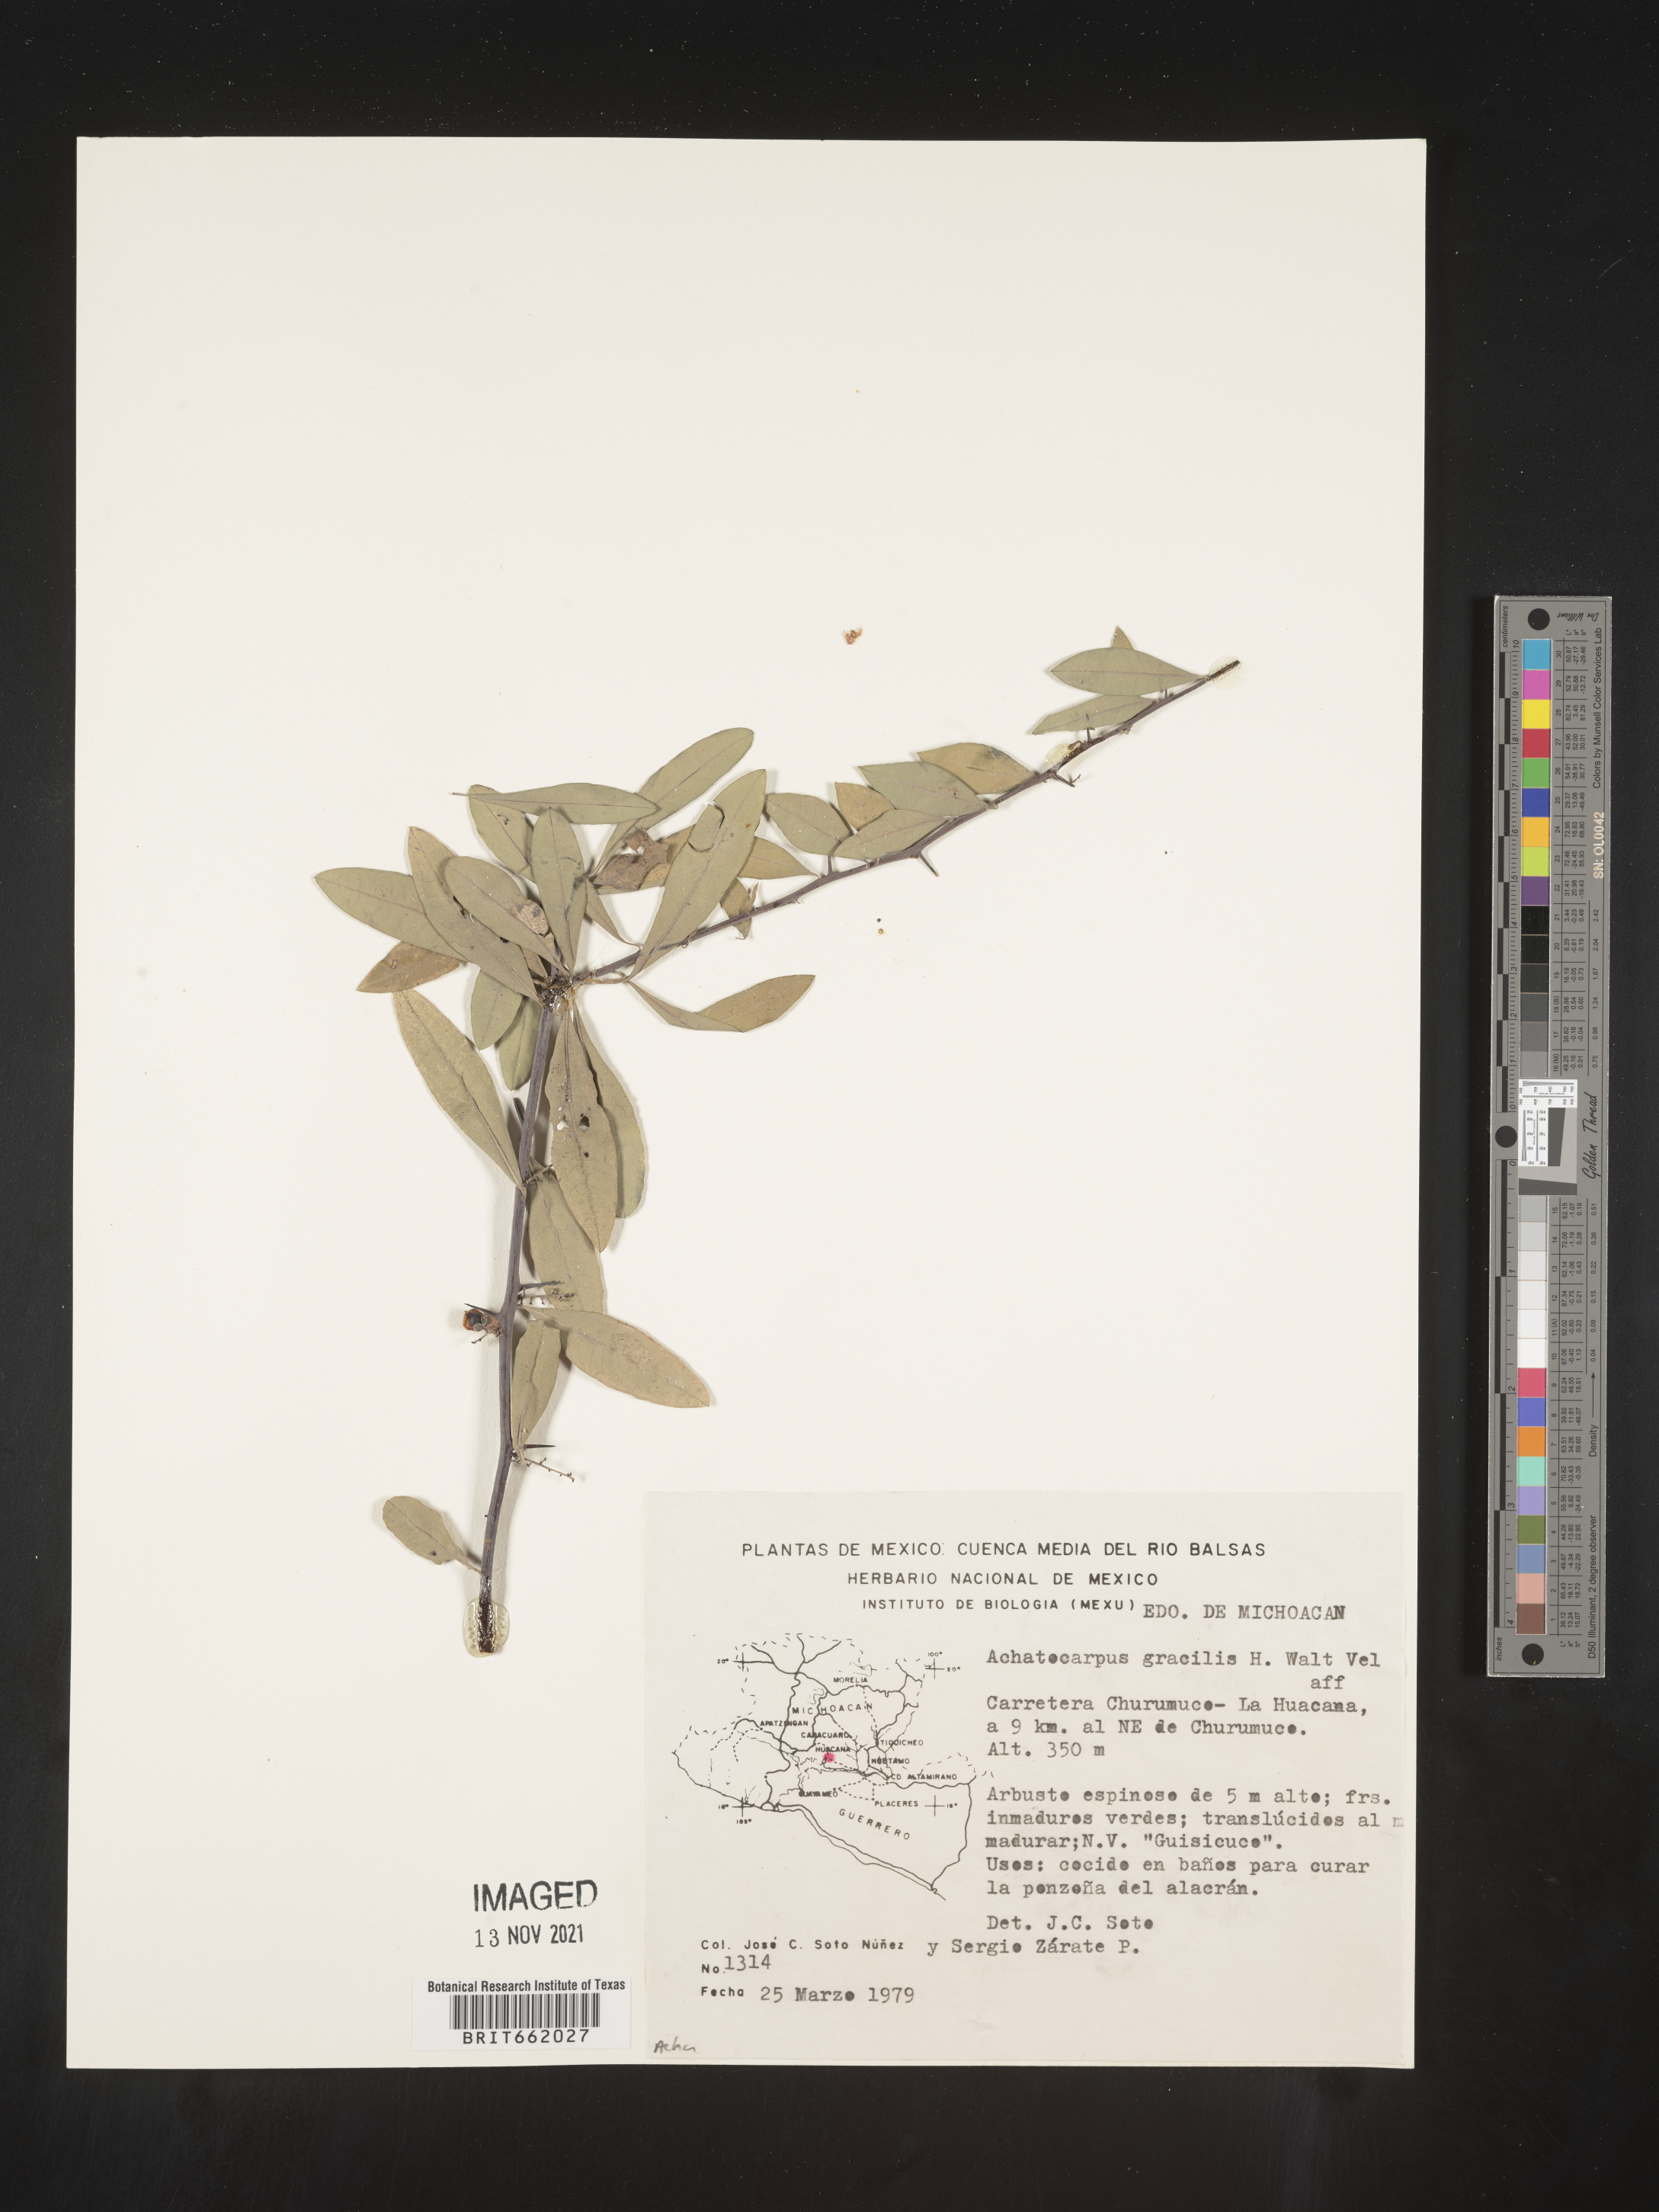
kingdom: Plantae
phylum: Tracheophyta
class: Magnoliopsida
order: Caryophyllales
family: Achatocarpaceae
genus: Achatocarpus
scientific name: Achatocarpus
